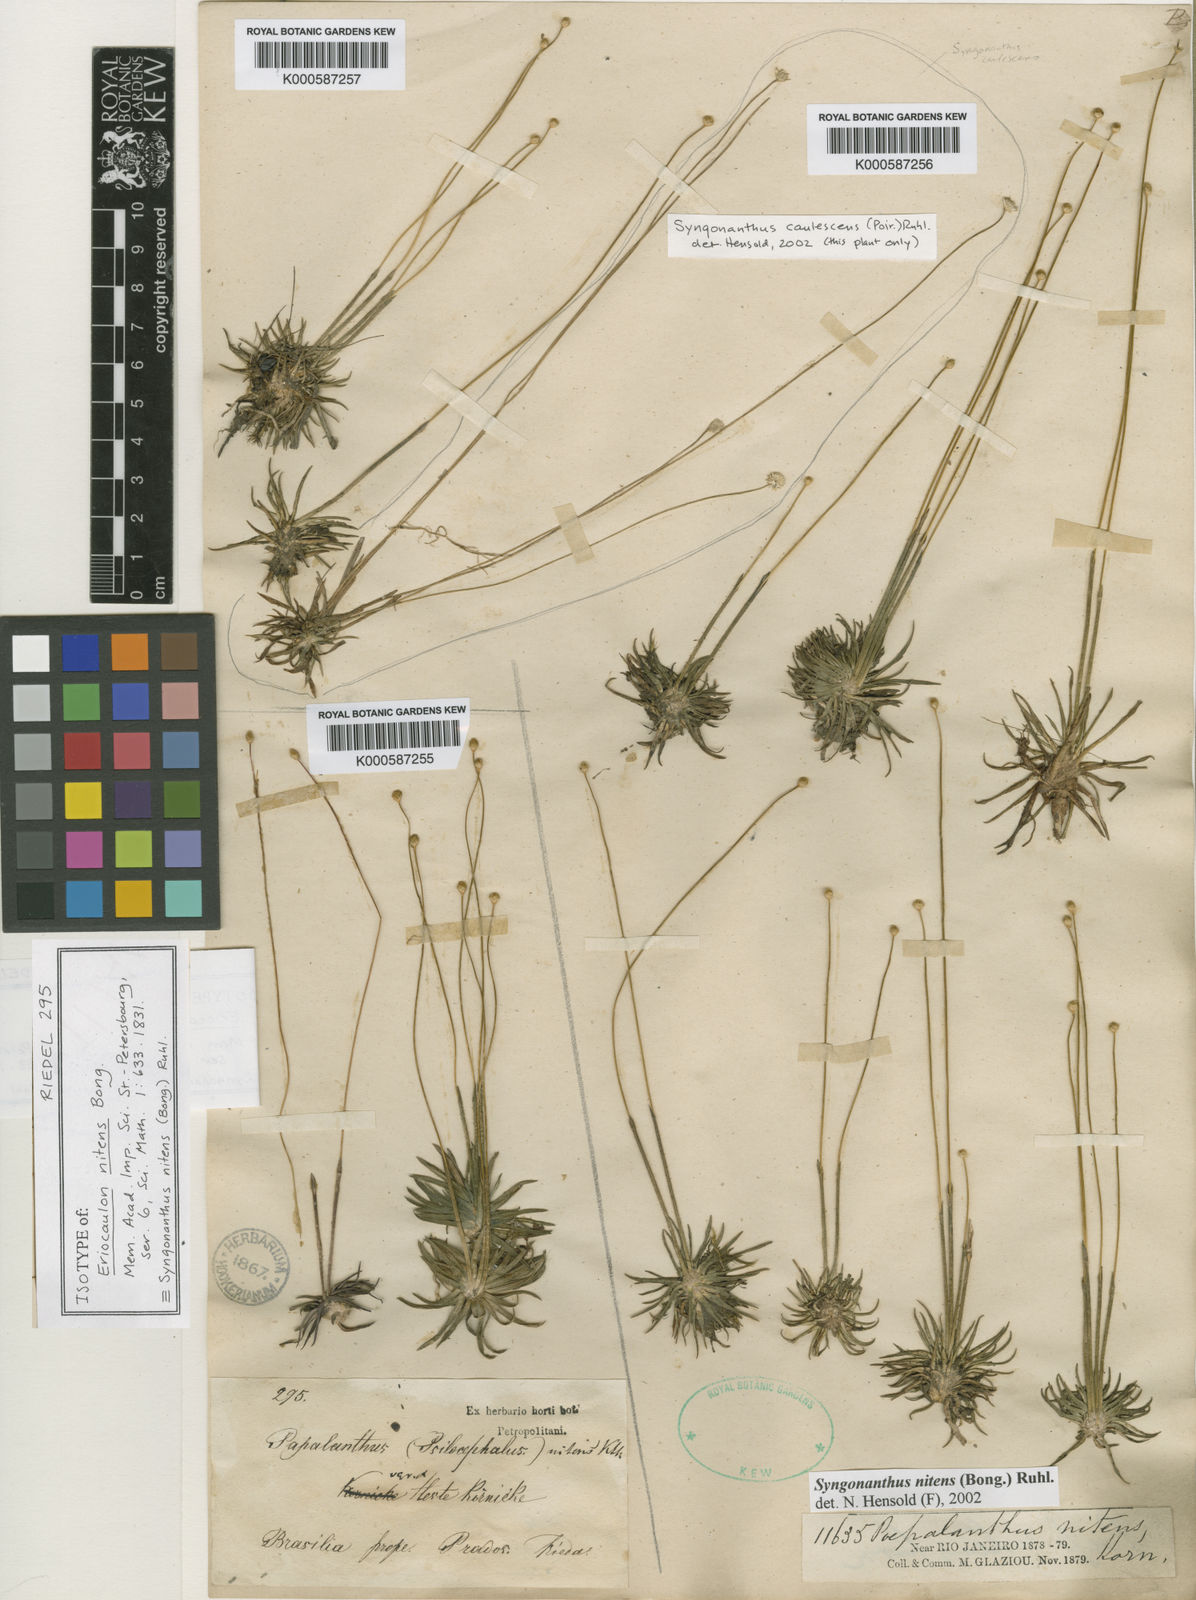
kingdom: Plantae
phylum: Tracheophyta
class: Liliopsida
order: Poales
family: Eriocaulaceae
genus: Syngonanthus
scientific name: Syngonanthus nitens
